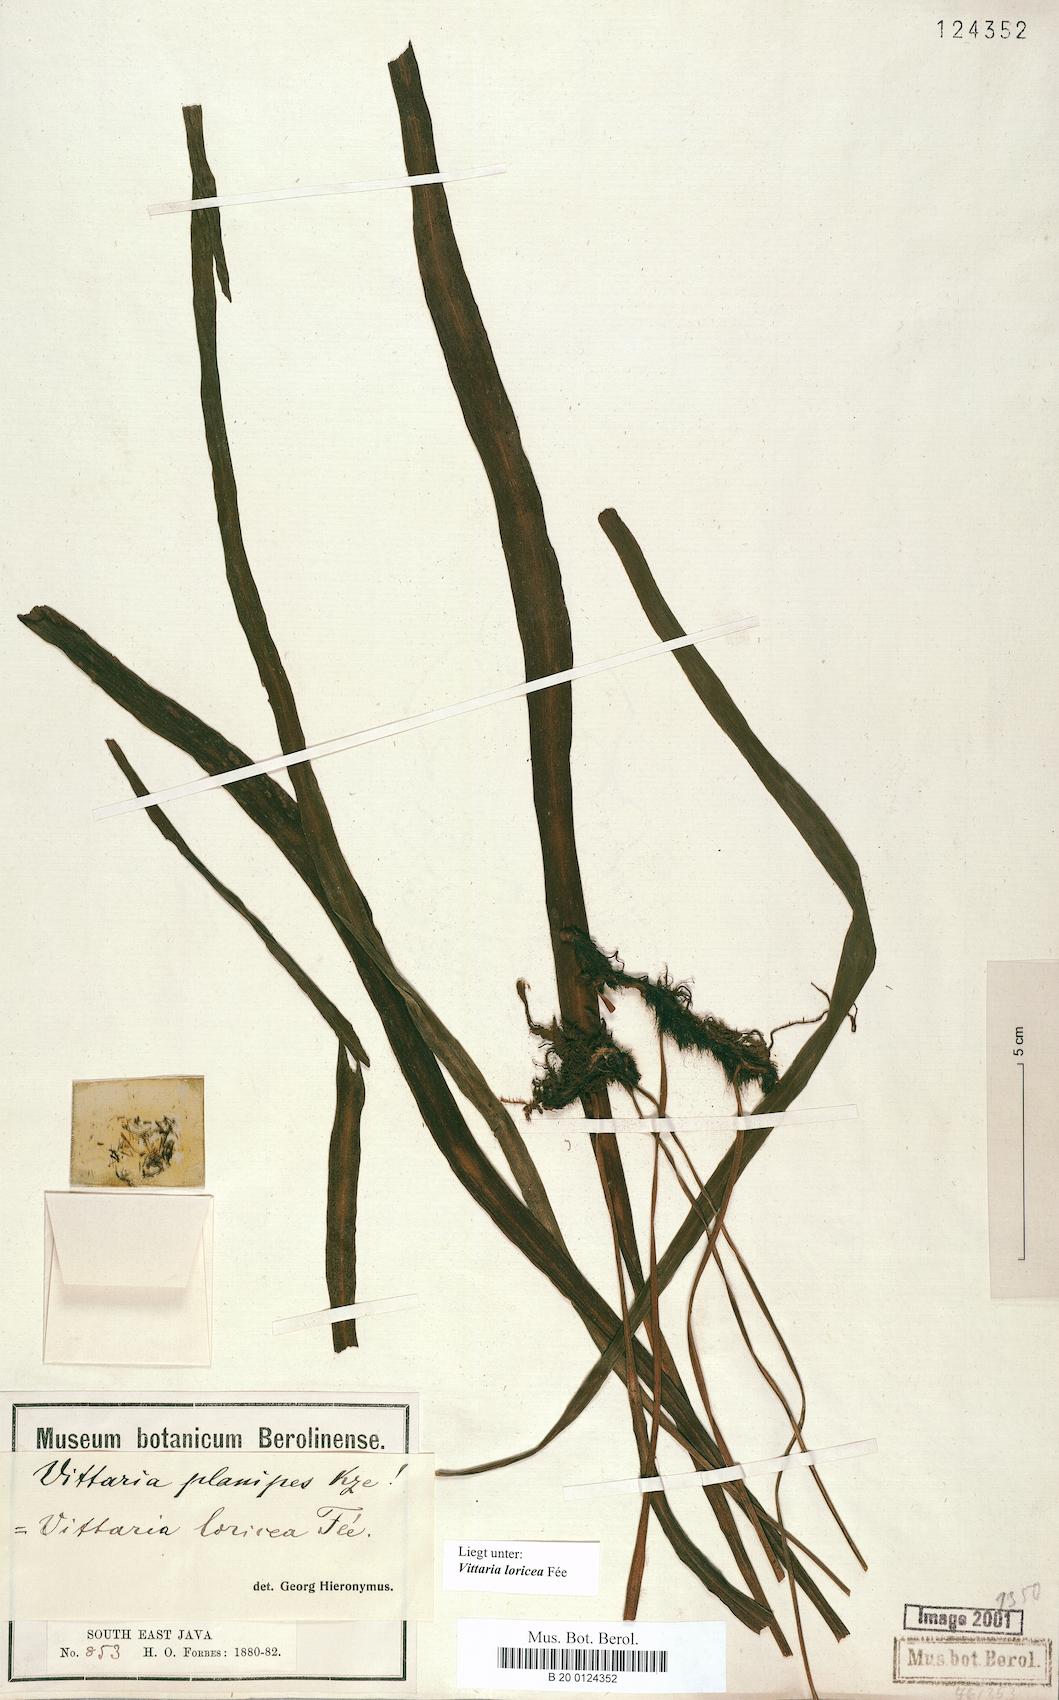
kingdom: Plantae
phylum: Tracheophyta
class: Polypodiopsida
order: Polypodiales
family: Pteridaceae
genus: Haplopteris
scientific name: Haplopteris zosterifolia
